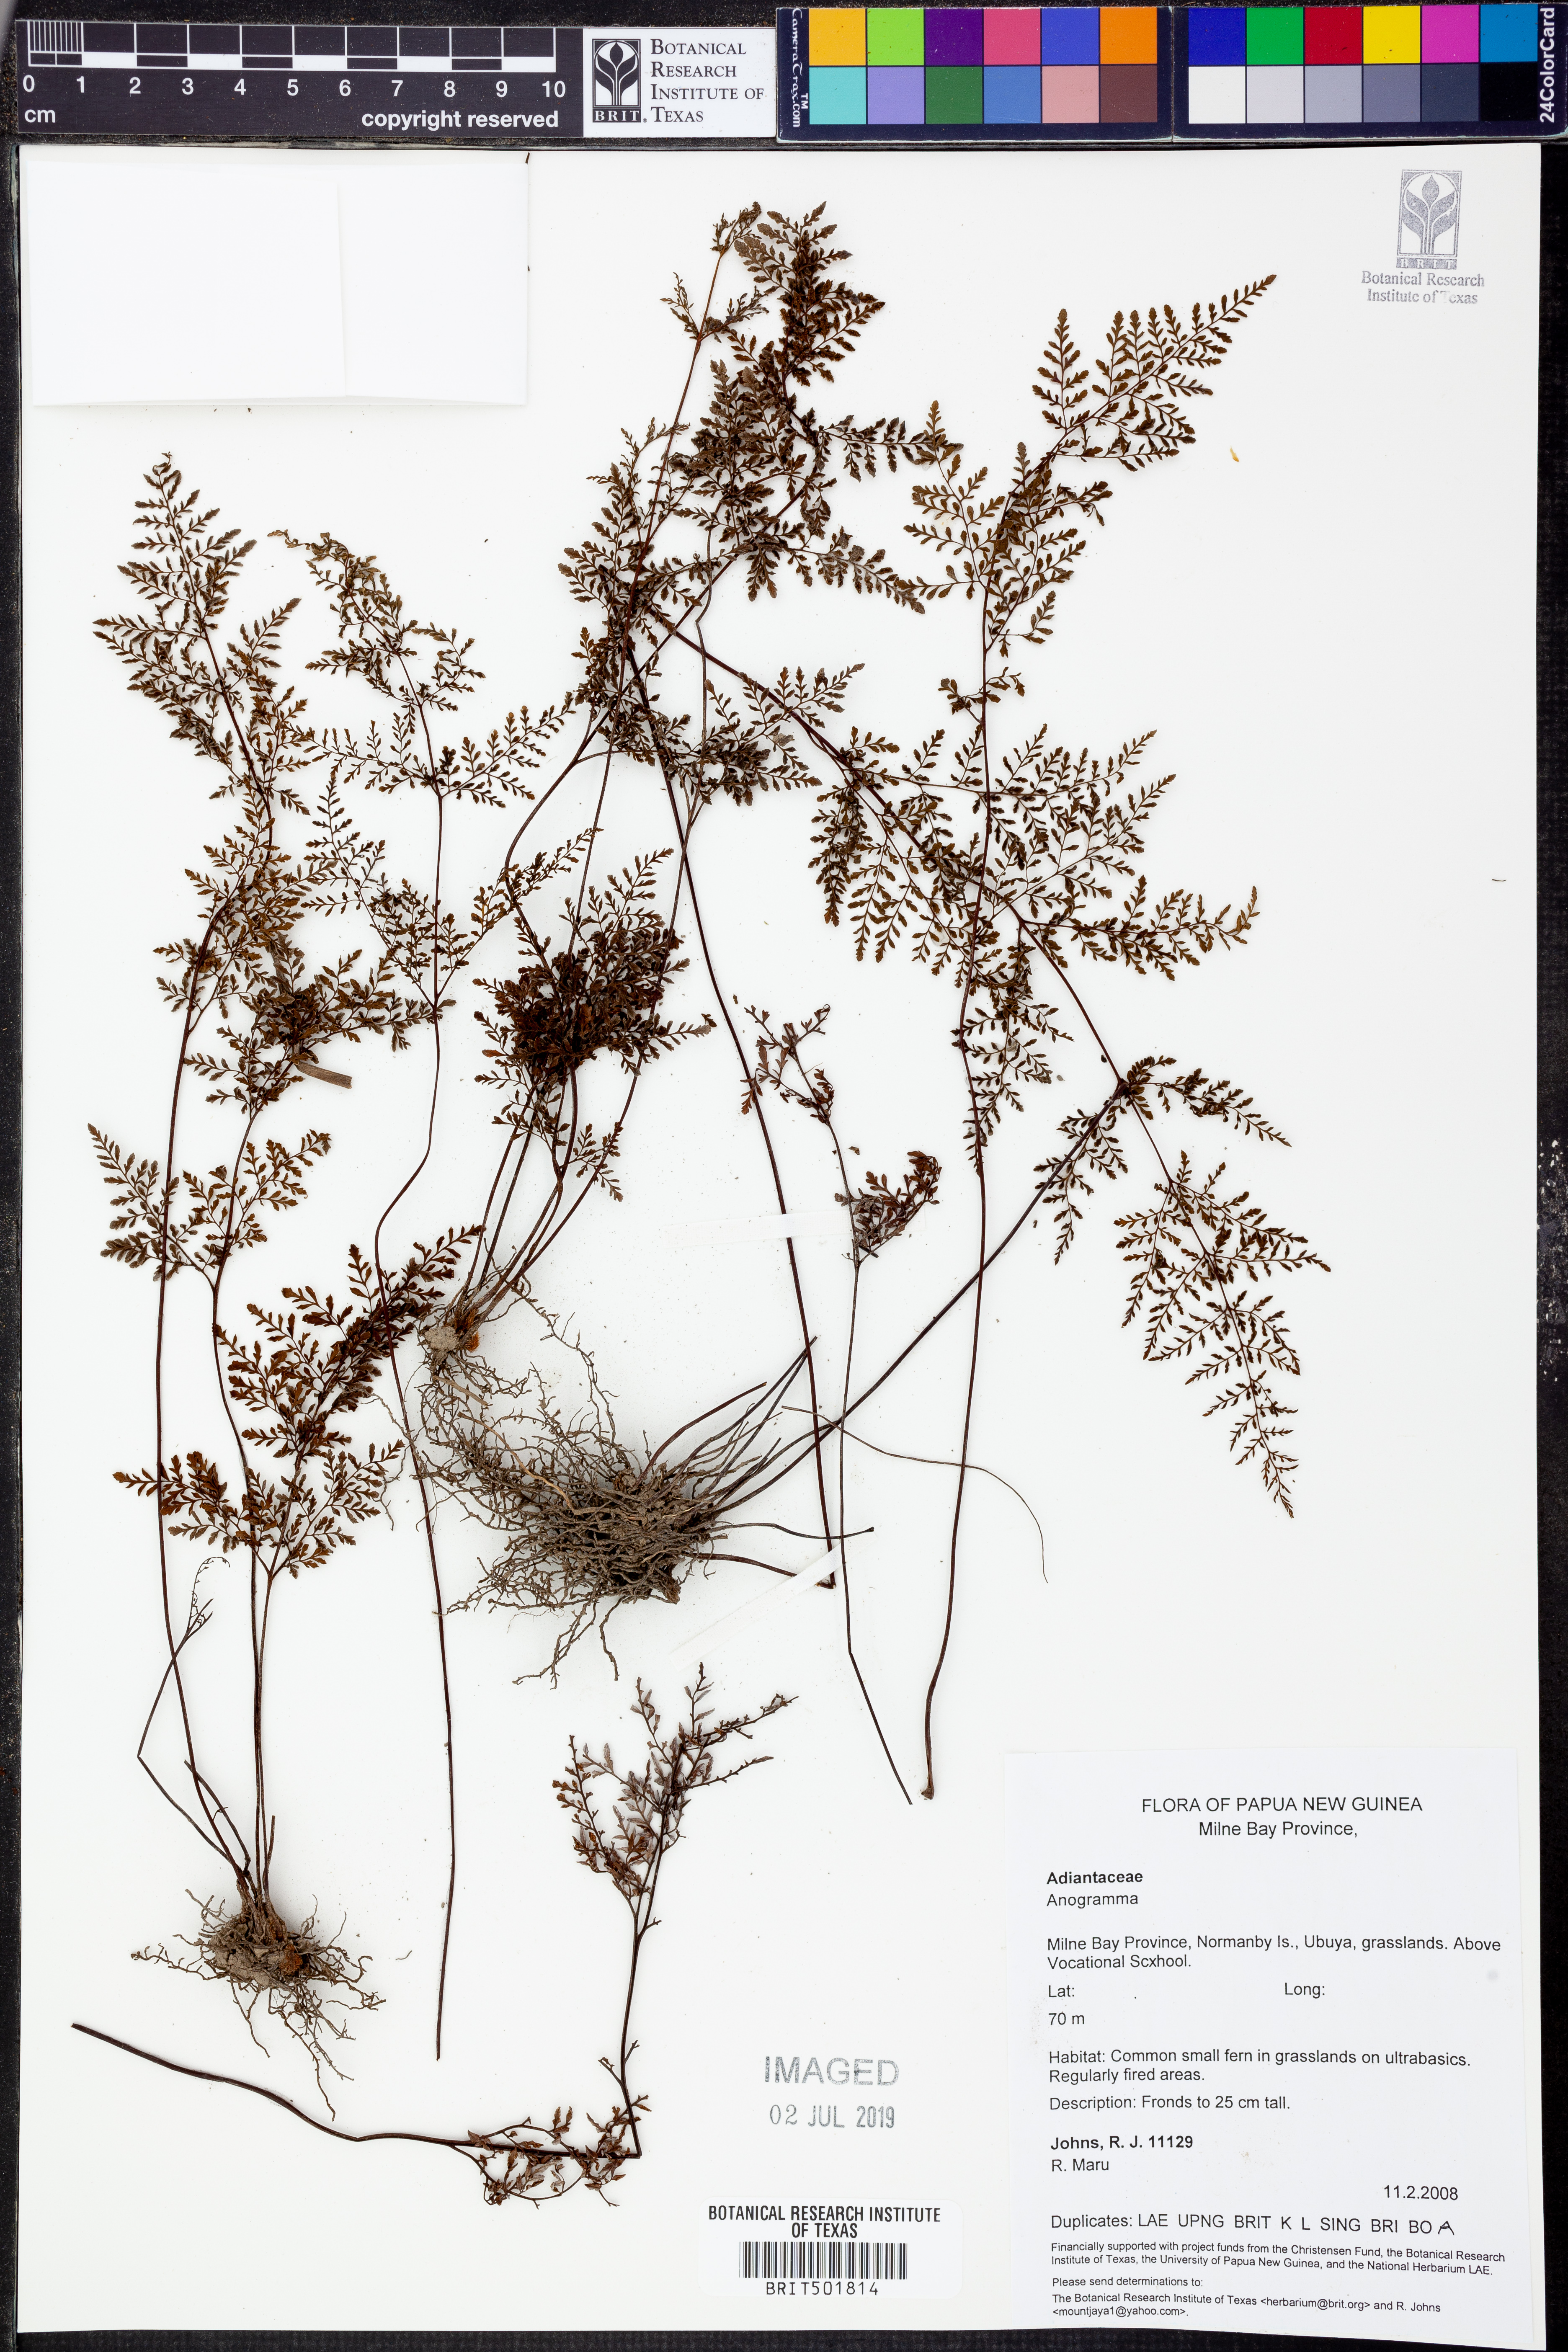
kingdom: Plantae
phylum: Tracheophyta
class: Polypodiopsida
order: Polypodiales
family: Pteridaceae
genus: Anogramma
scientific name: Anogramma
